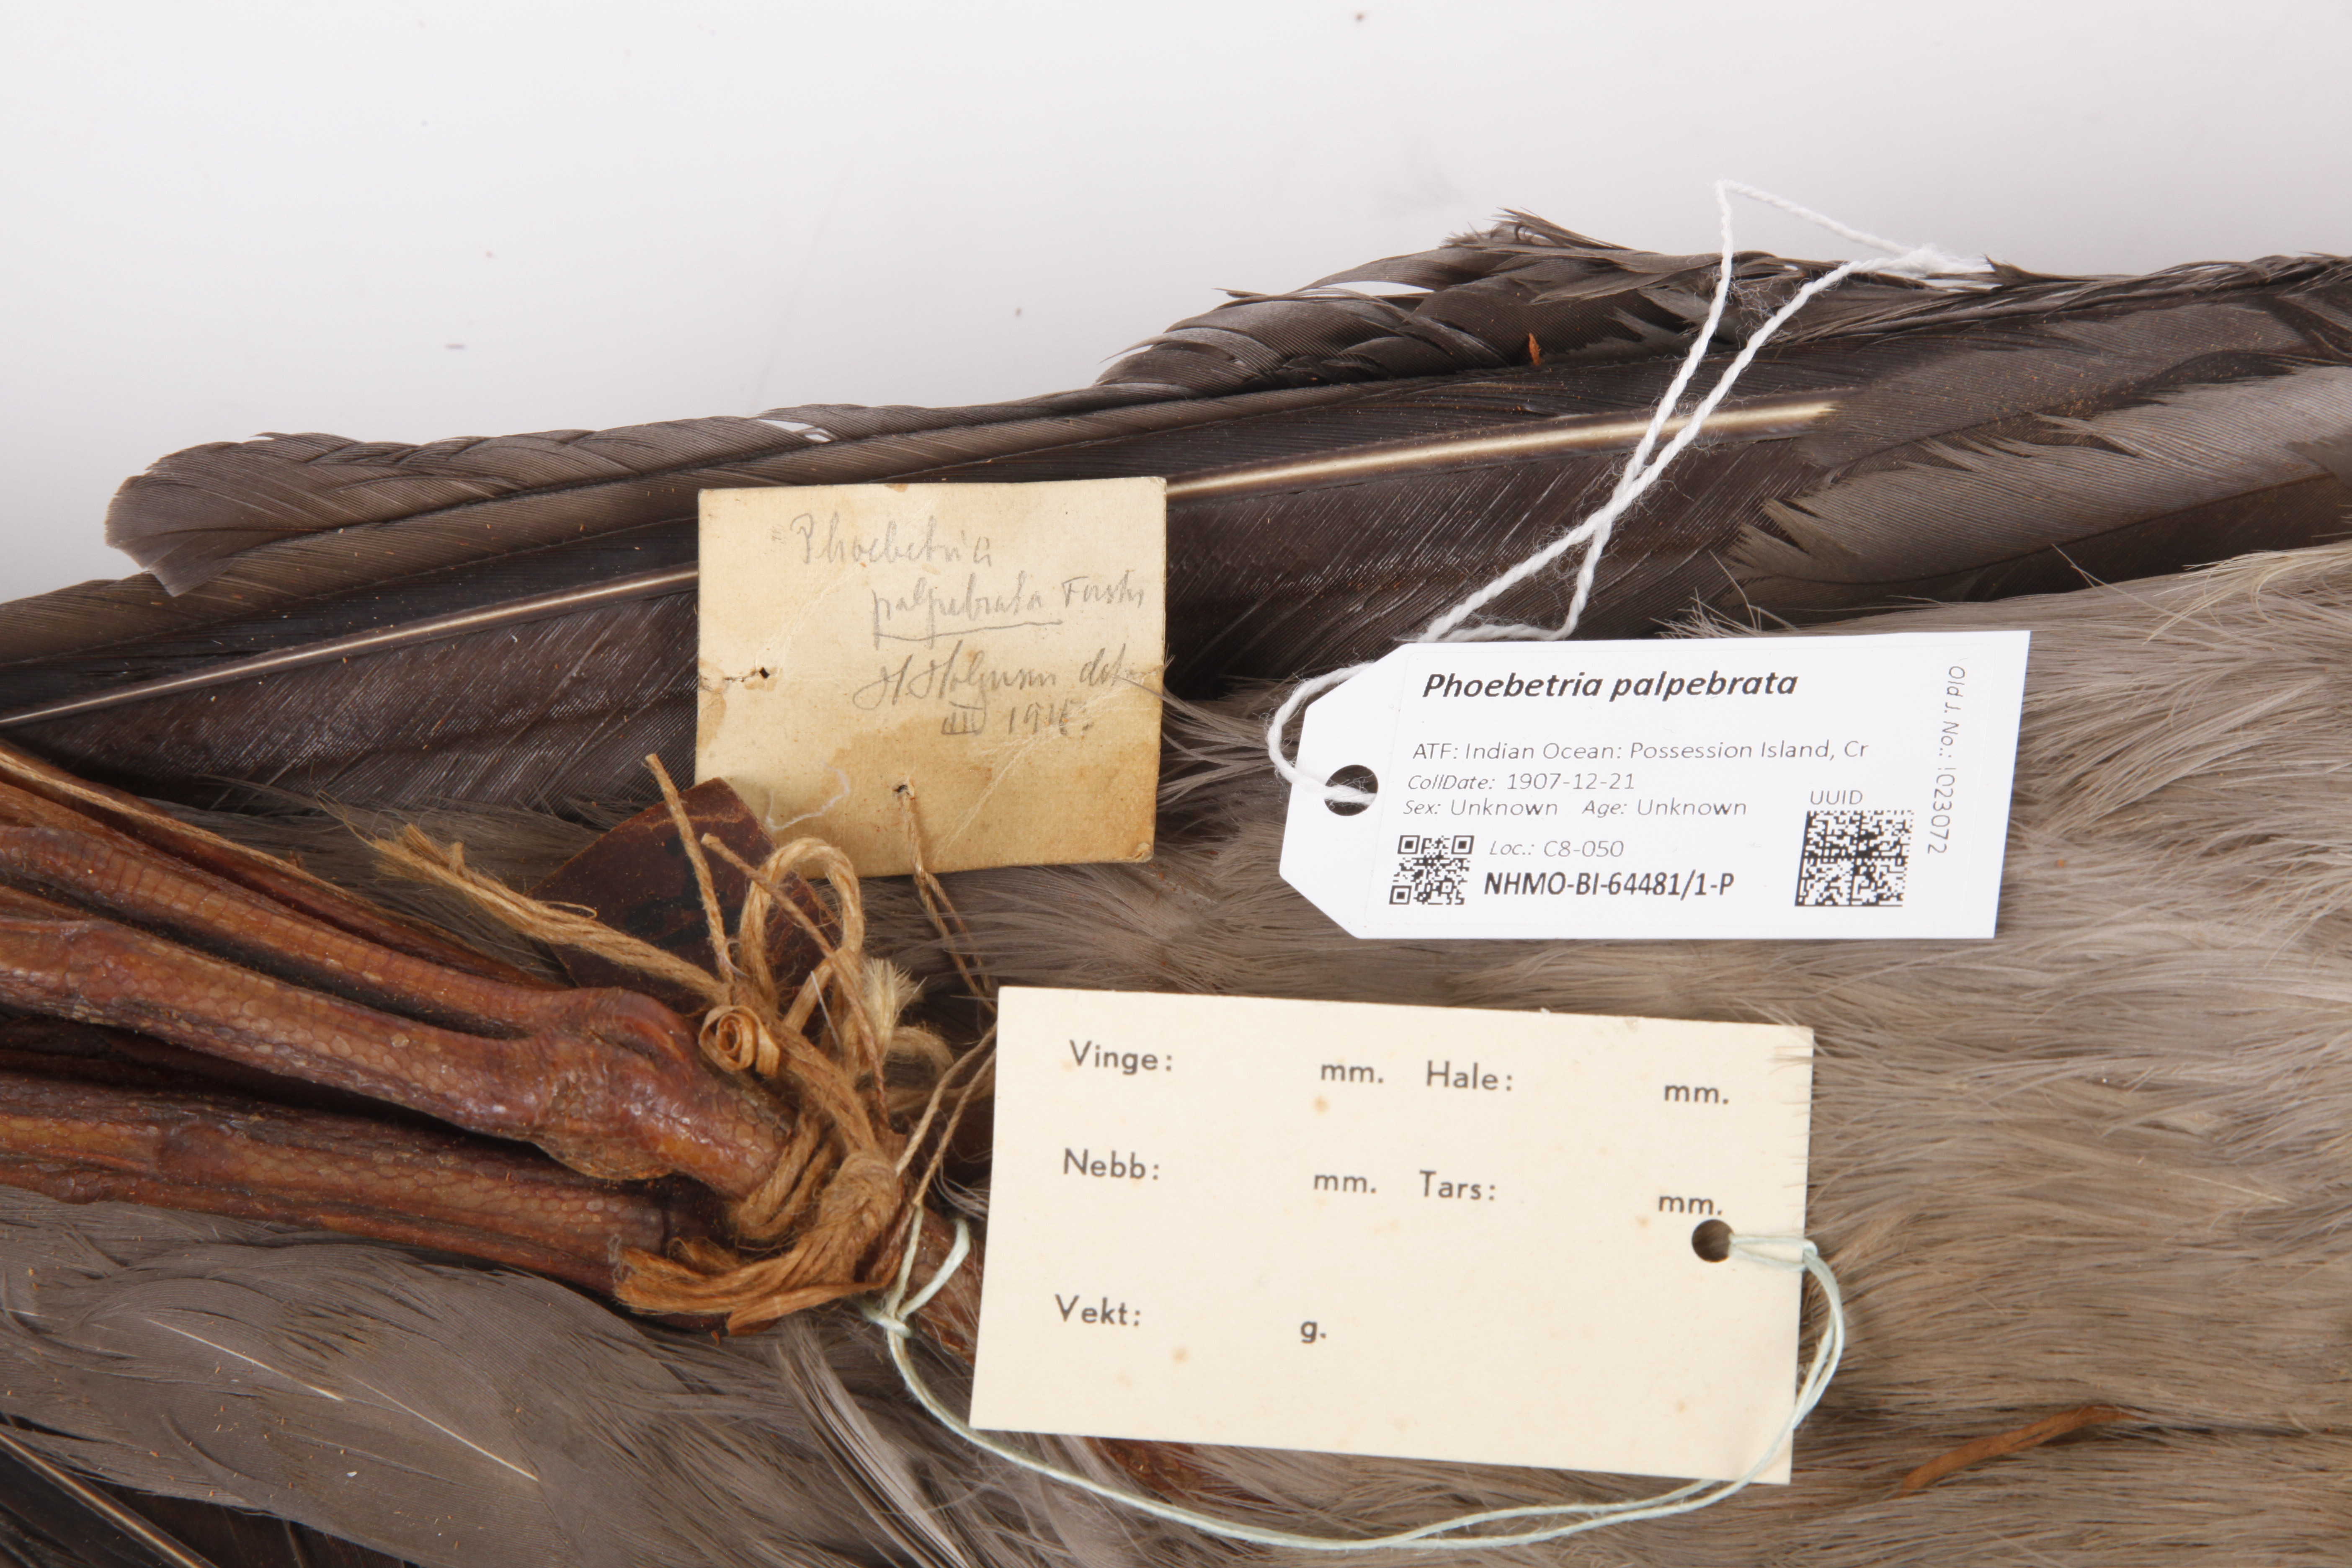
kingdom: Animalia
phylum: Chordata
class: Aves
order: Procellariiformes
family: Diomedeidae
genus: Phoebetria
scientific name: Phoebetria palpebrata
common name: Light-mantled albatross
